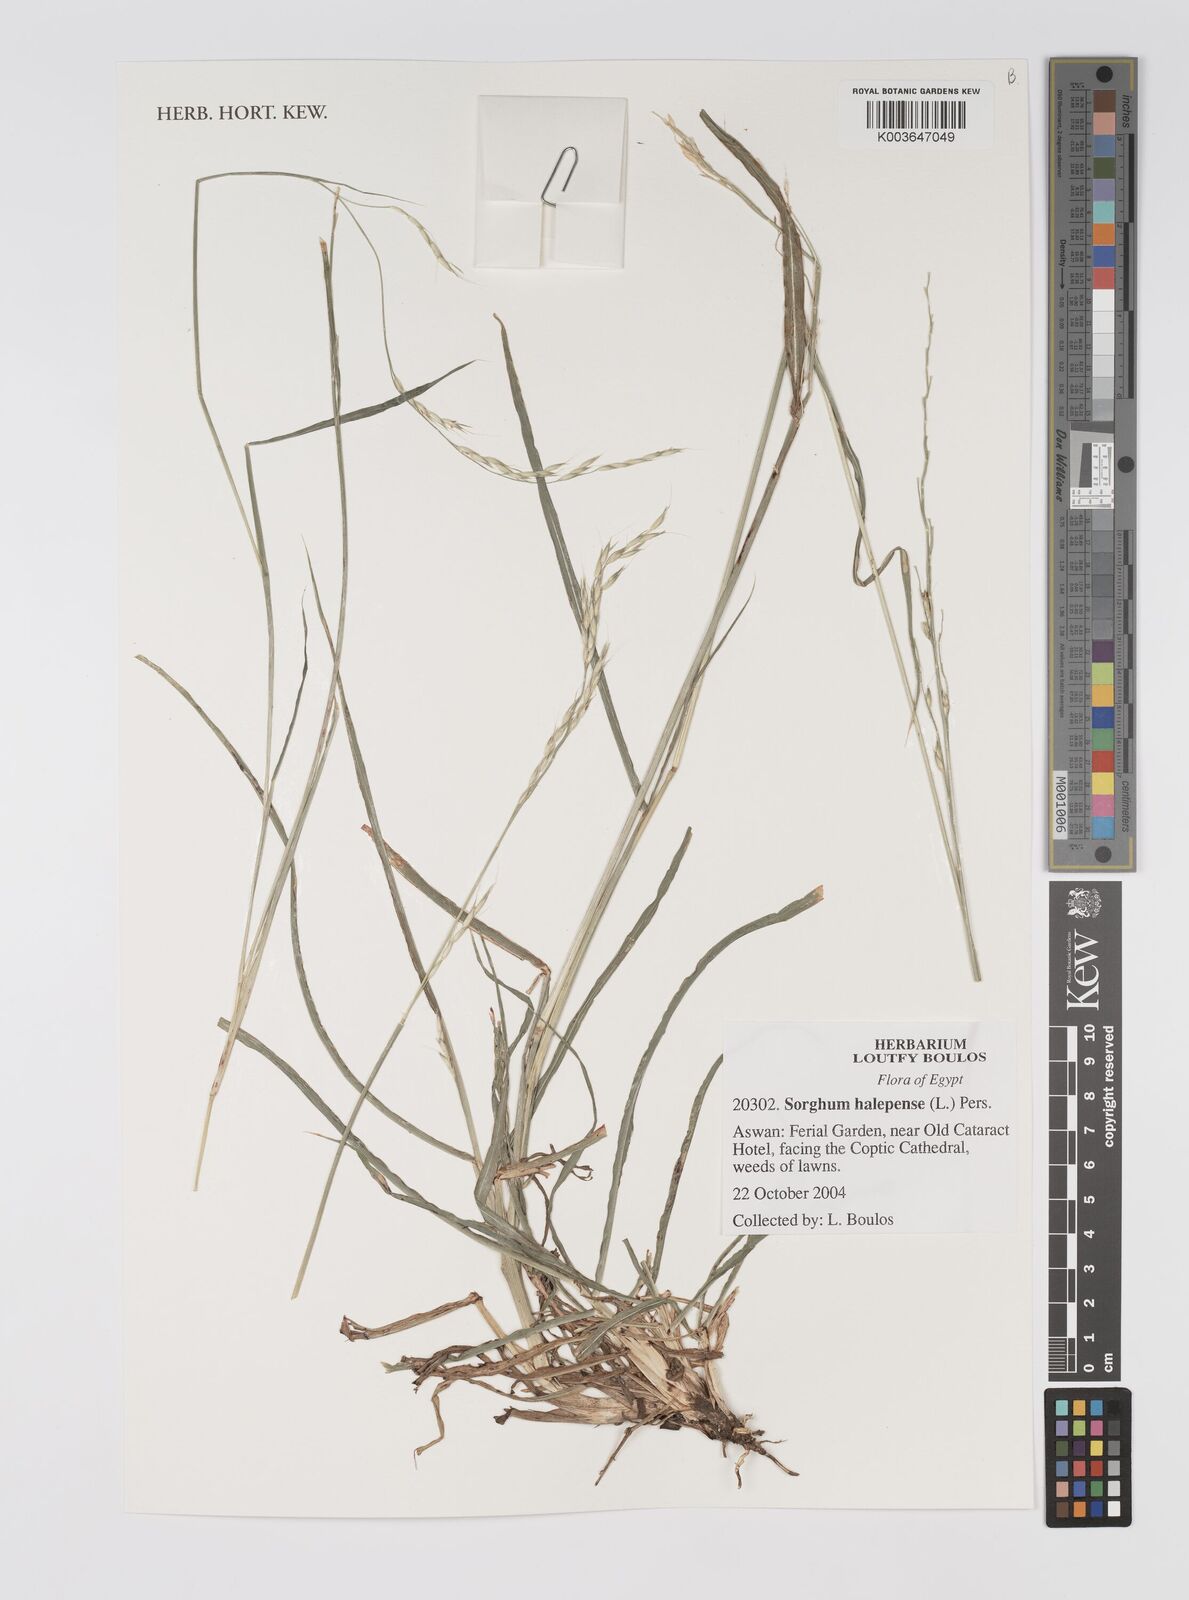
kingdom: Plantae
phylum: Tracheophyta
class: Liliopsida
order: Poales
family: Poaceae
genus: Sorghum
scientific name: Sorghum halepense
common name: Johnson-grass
